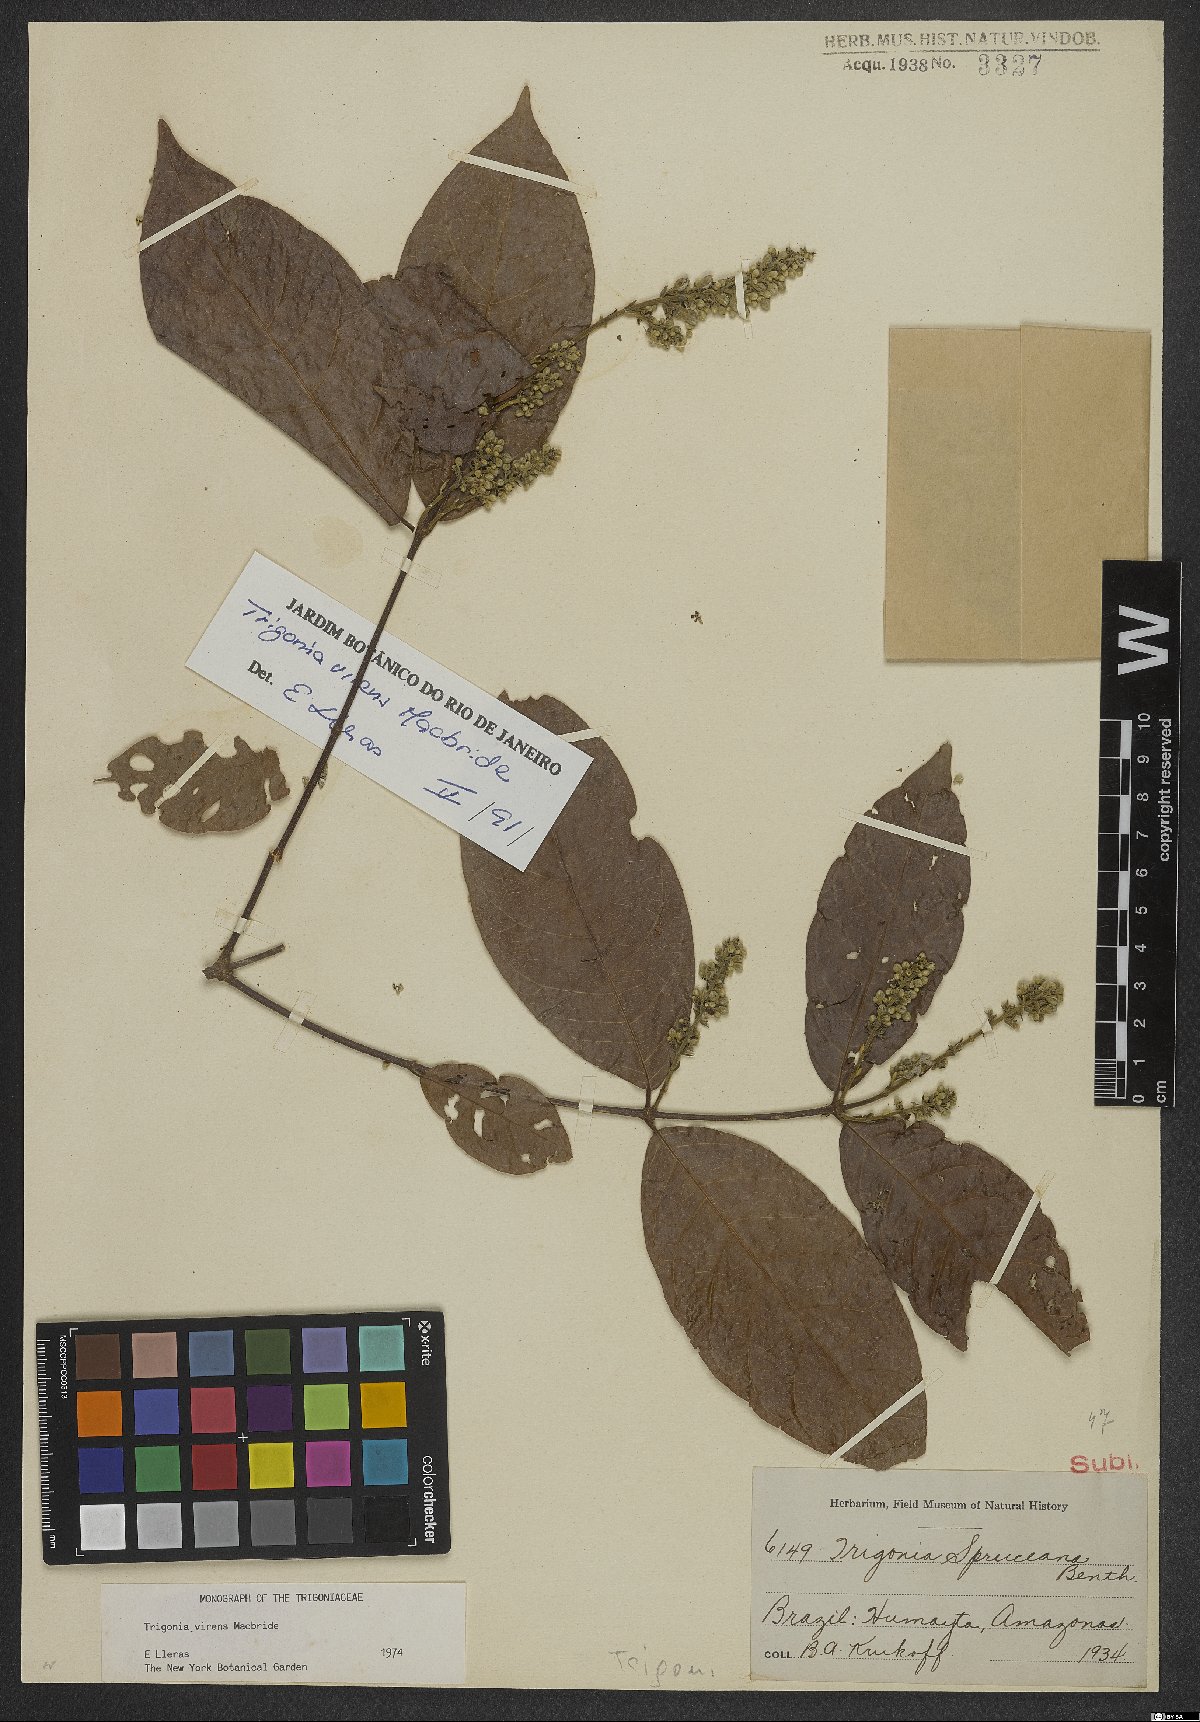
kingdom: Plantae
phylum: Tracheophyta
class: Magnoliopsida
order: Malpighiales
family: Trigoniaceae
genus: Trigonia
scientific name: Trigonia virens
